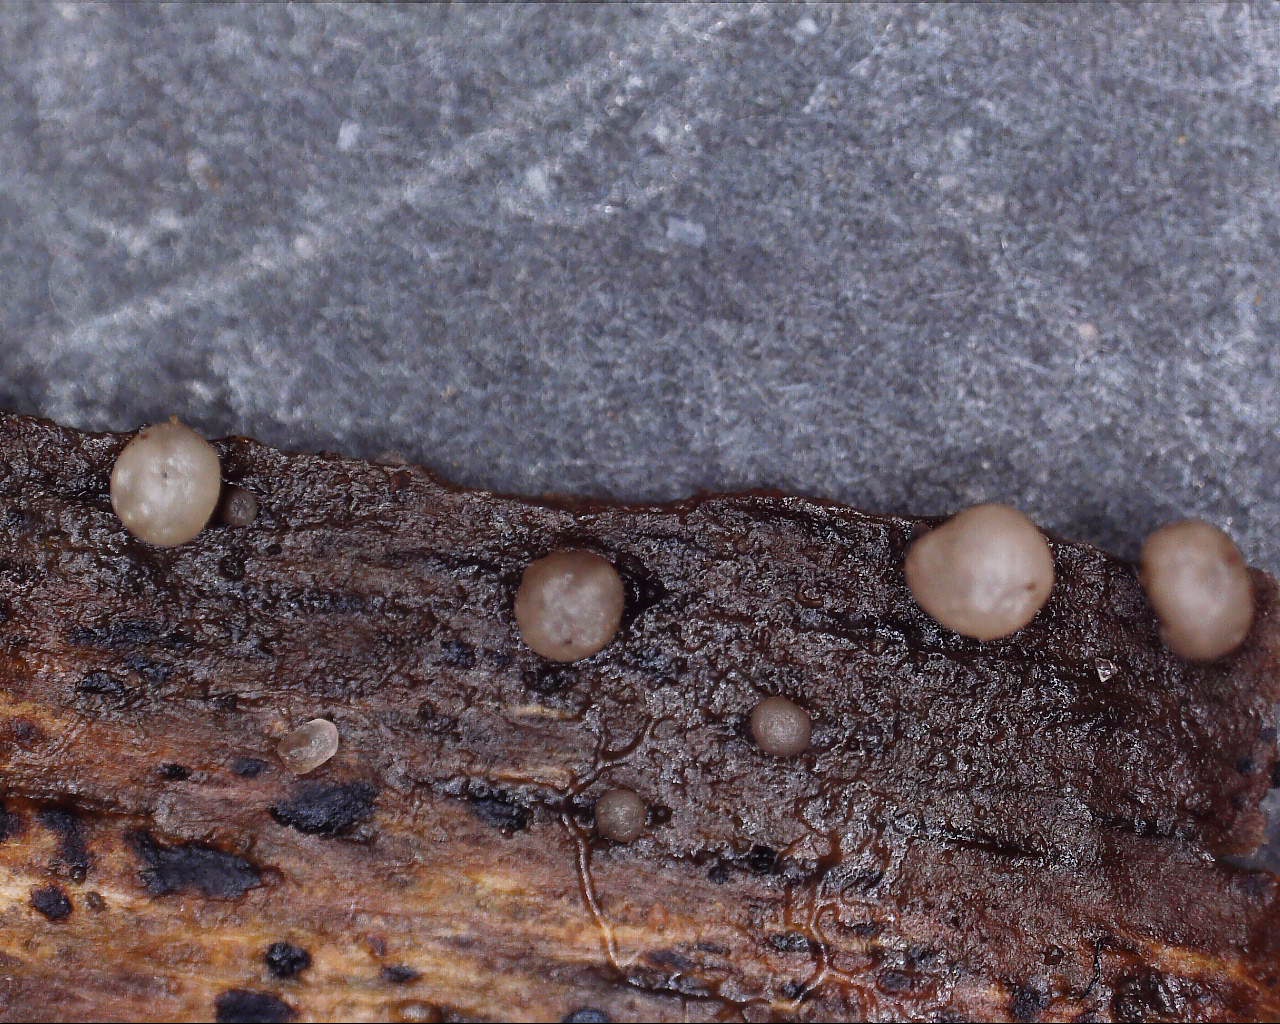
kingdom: Fungi
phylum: Ascomycota
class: Leotiomycetes
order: Helotiales
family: Gelatinodiscaceae
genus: Ascocoryne
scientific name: Ascocoryne albida
